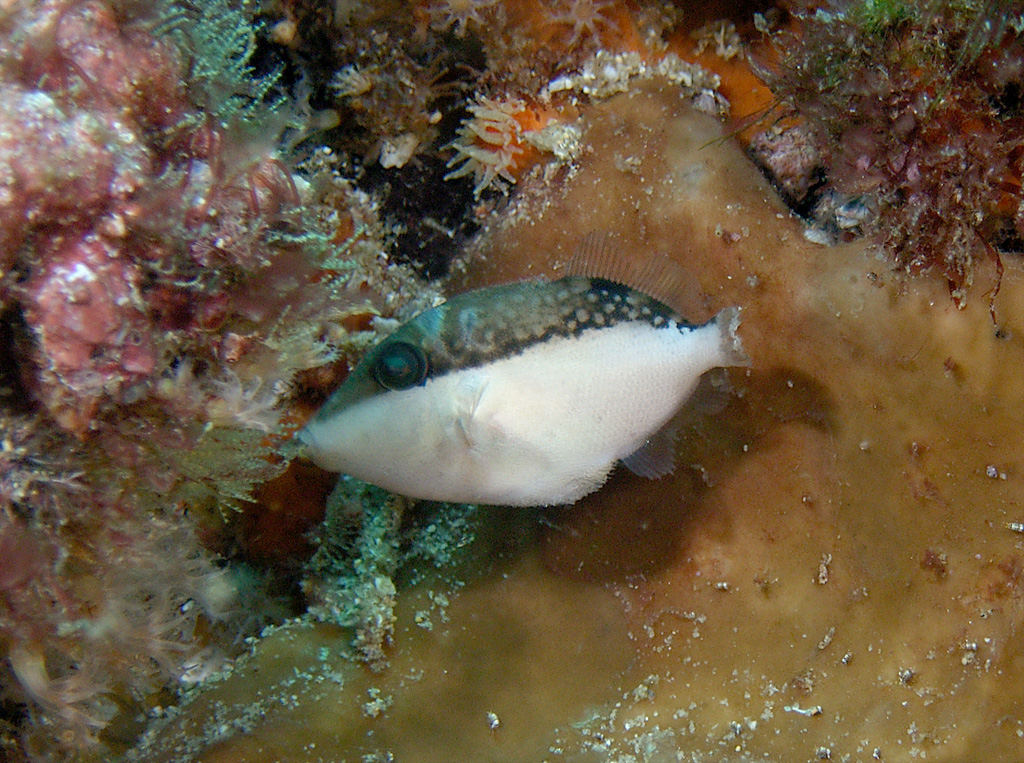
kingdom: Animalia
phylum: Chordata
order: Tetraodontiformes
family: Balistidae
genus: Sufflamen
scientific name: Sufflamen chrysopterum
